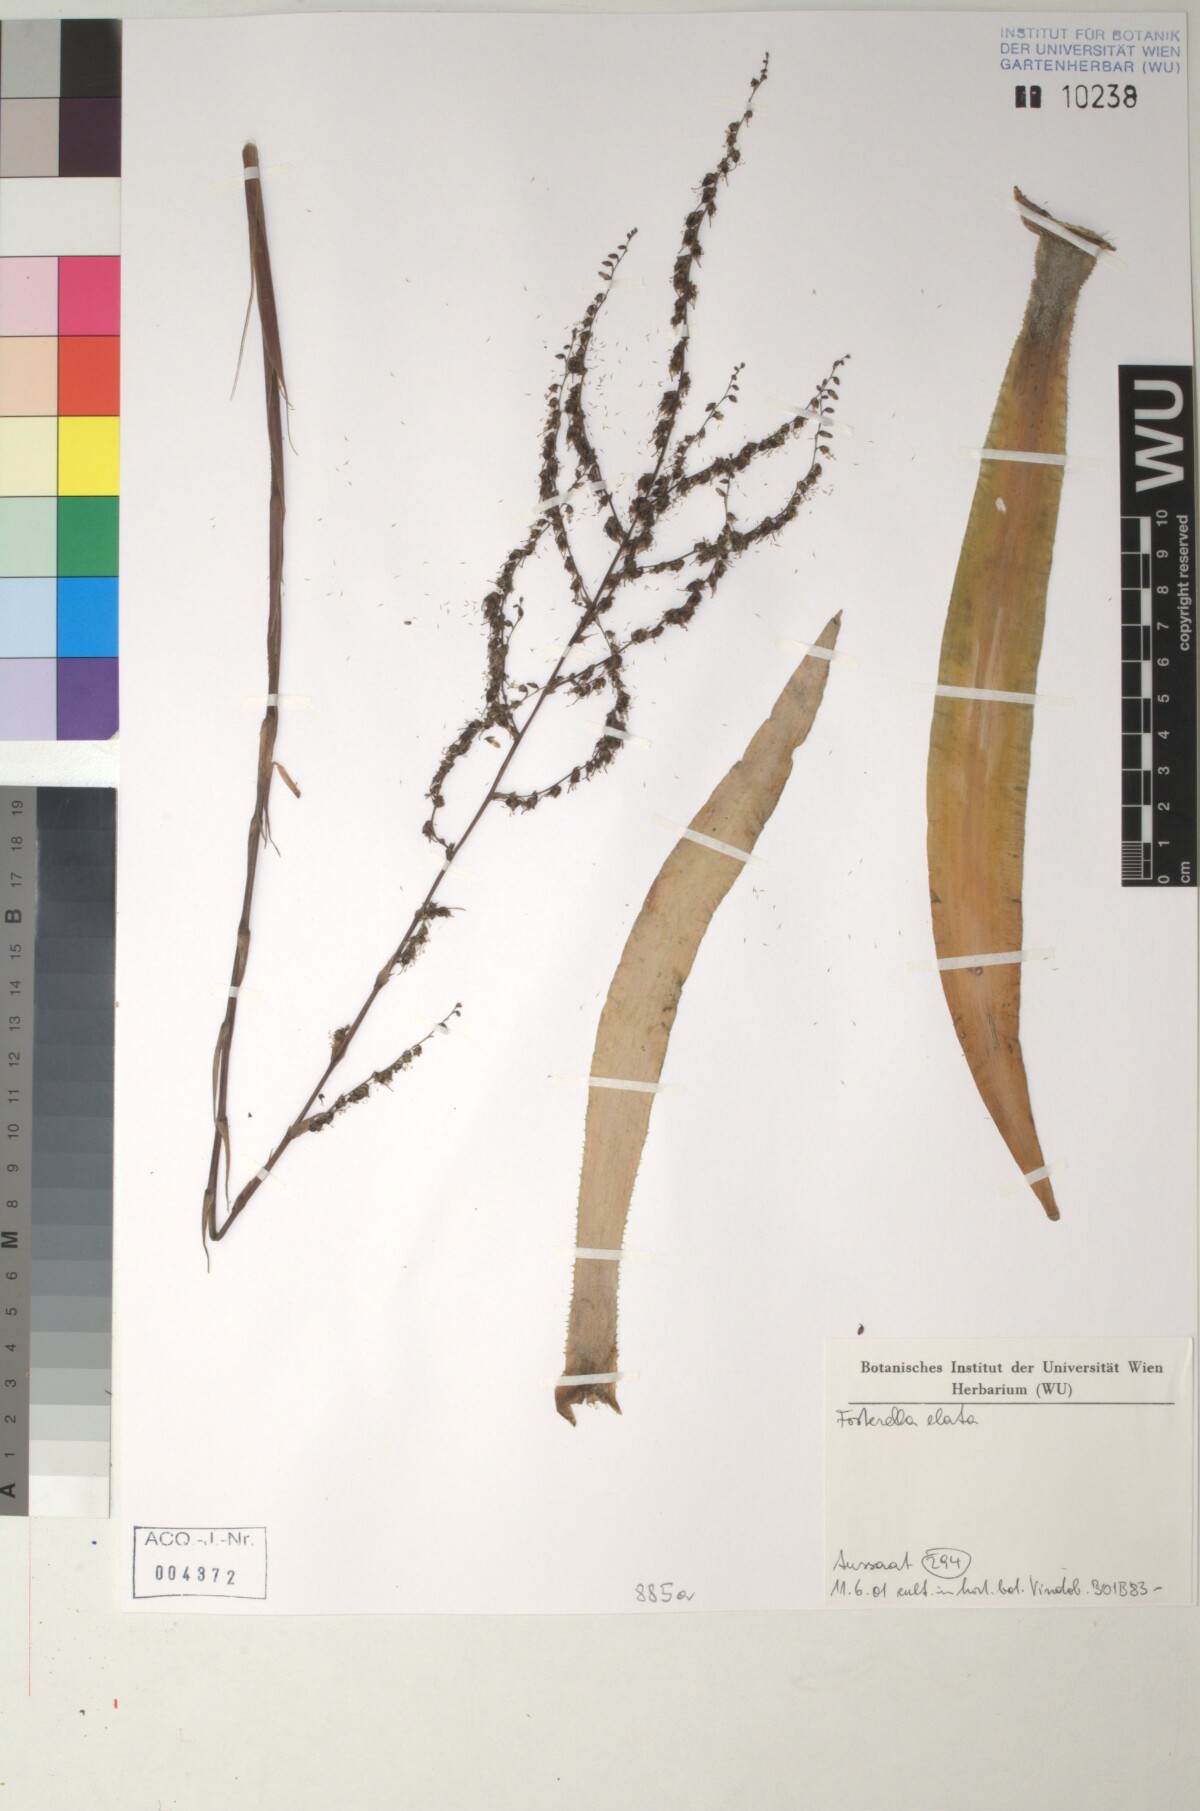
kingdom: Plantae
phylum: Tracheophyta
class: Liliopsida
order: Poales
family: Bromeliaceae
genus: Fosterella
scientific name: Fosterella rusbyi
